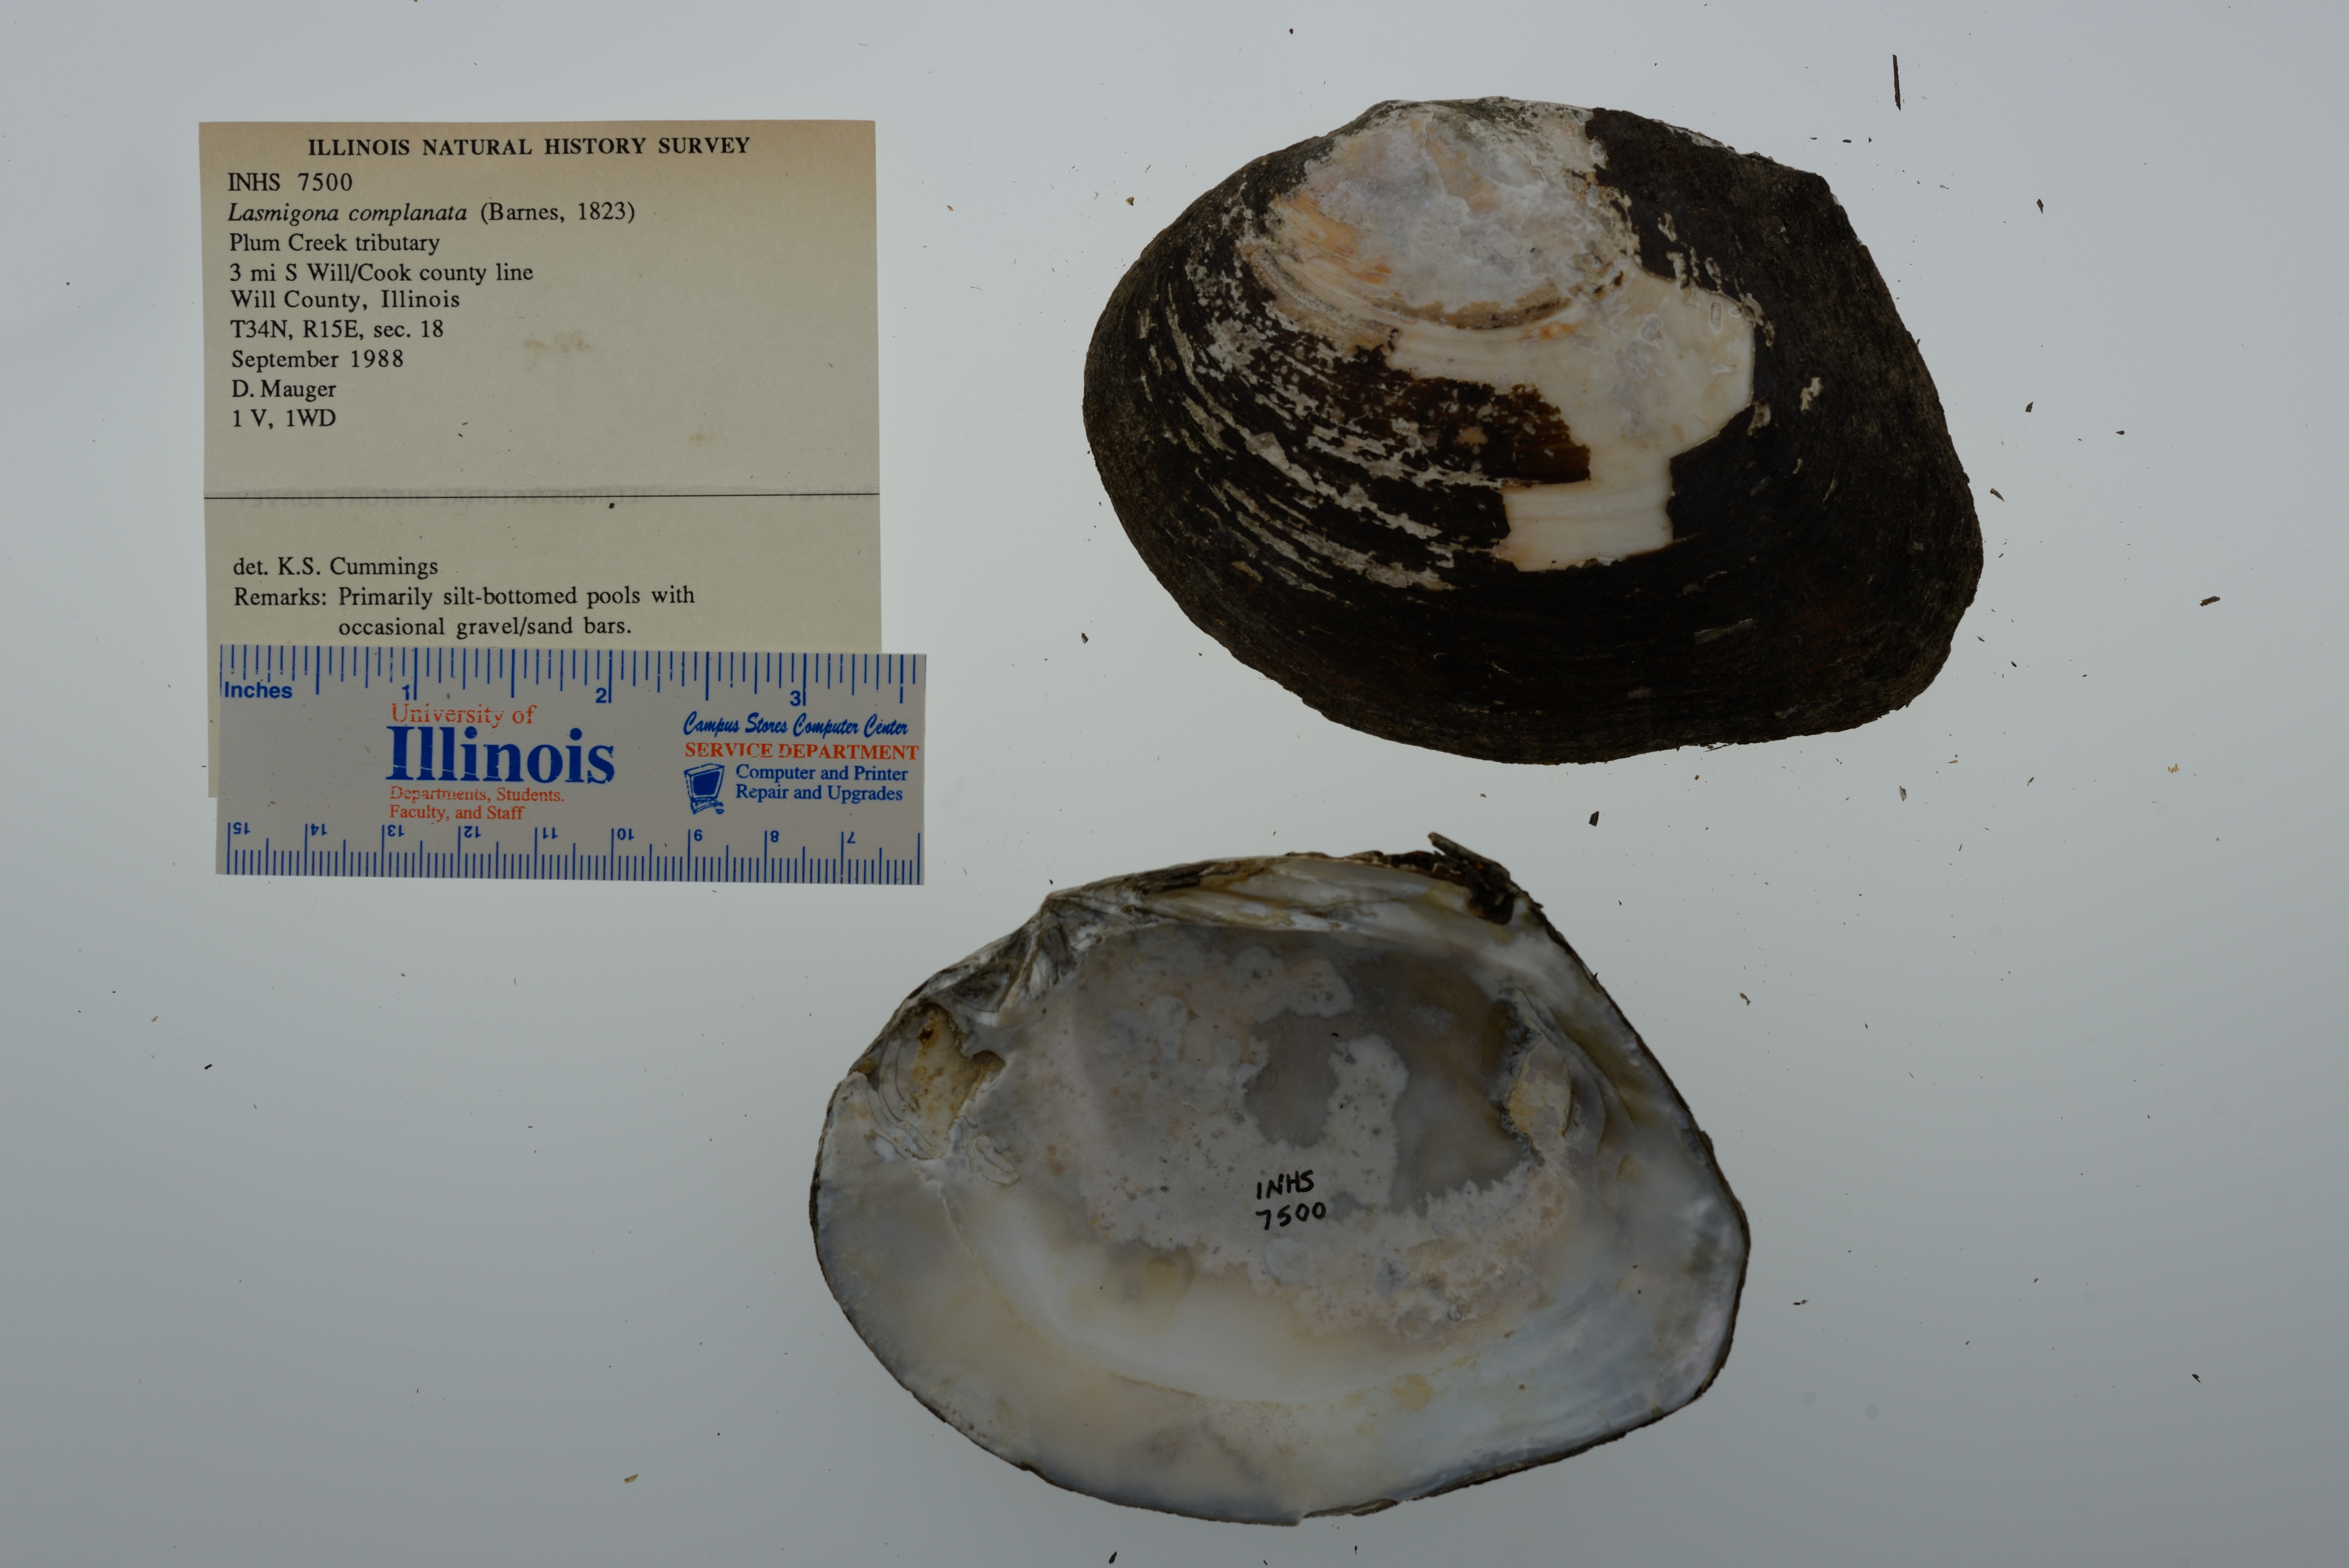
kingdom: Animalia
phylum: Mollusca
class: Bivalvia
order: Unionida
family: Unionidae
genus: Lasmigona
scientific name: Lasmigona complanata
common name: White heelsplitter
